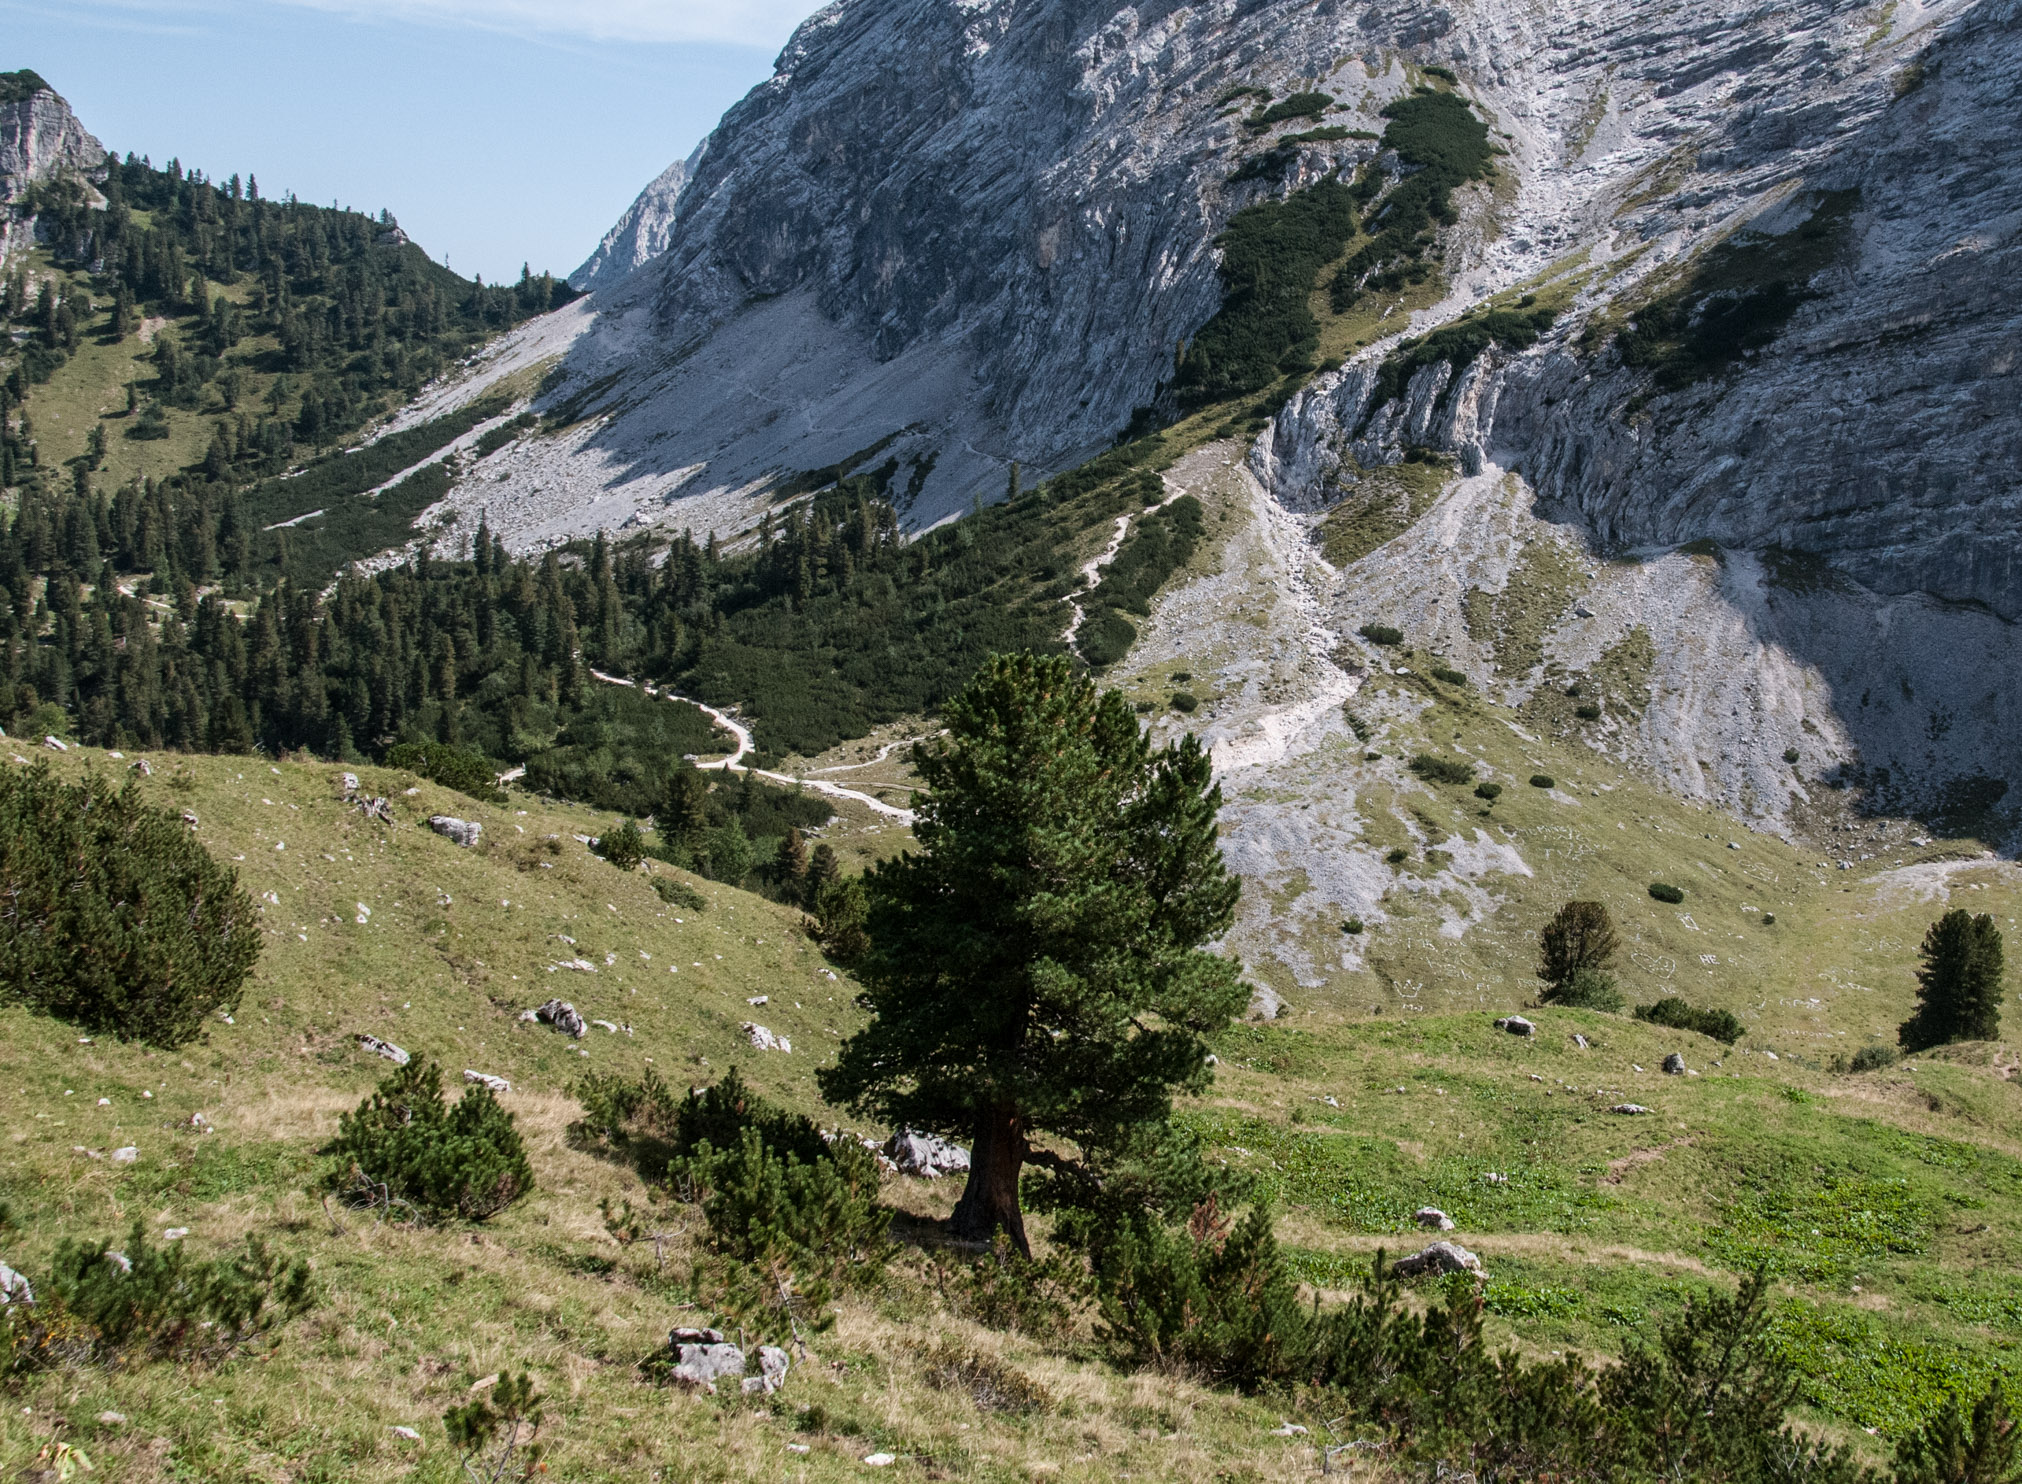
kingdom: Plantae
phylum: Tracheophyta
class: Pinopsida
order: Pinales
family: Pinaceae
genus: Pinus
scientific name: Pinus cembra
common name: Arolla pine
